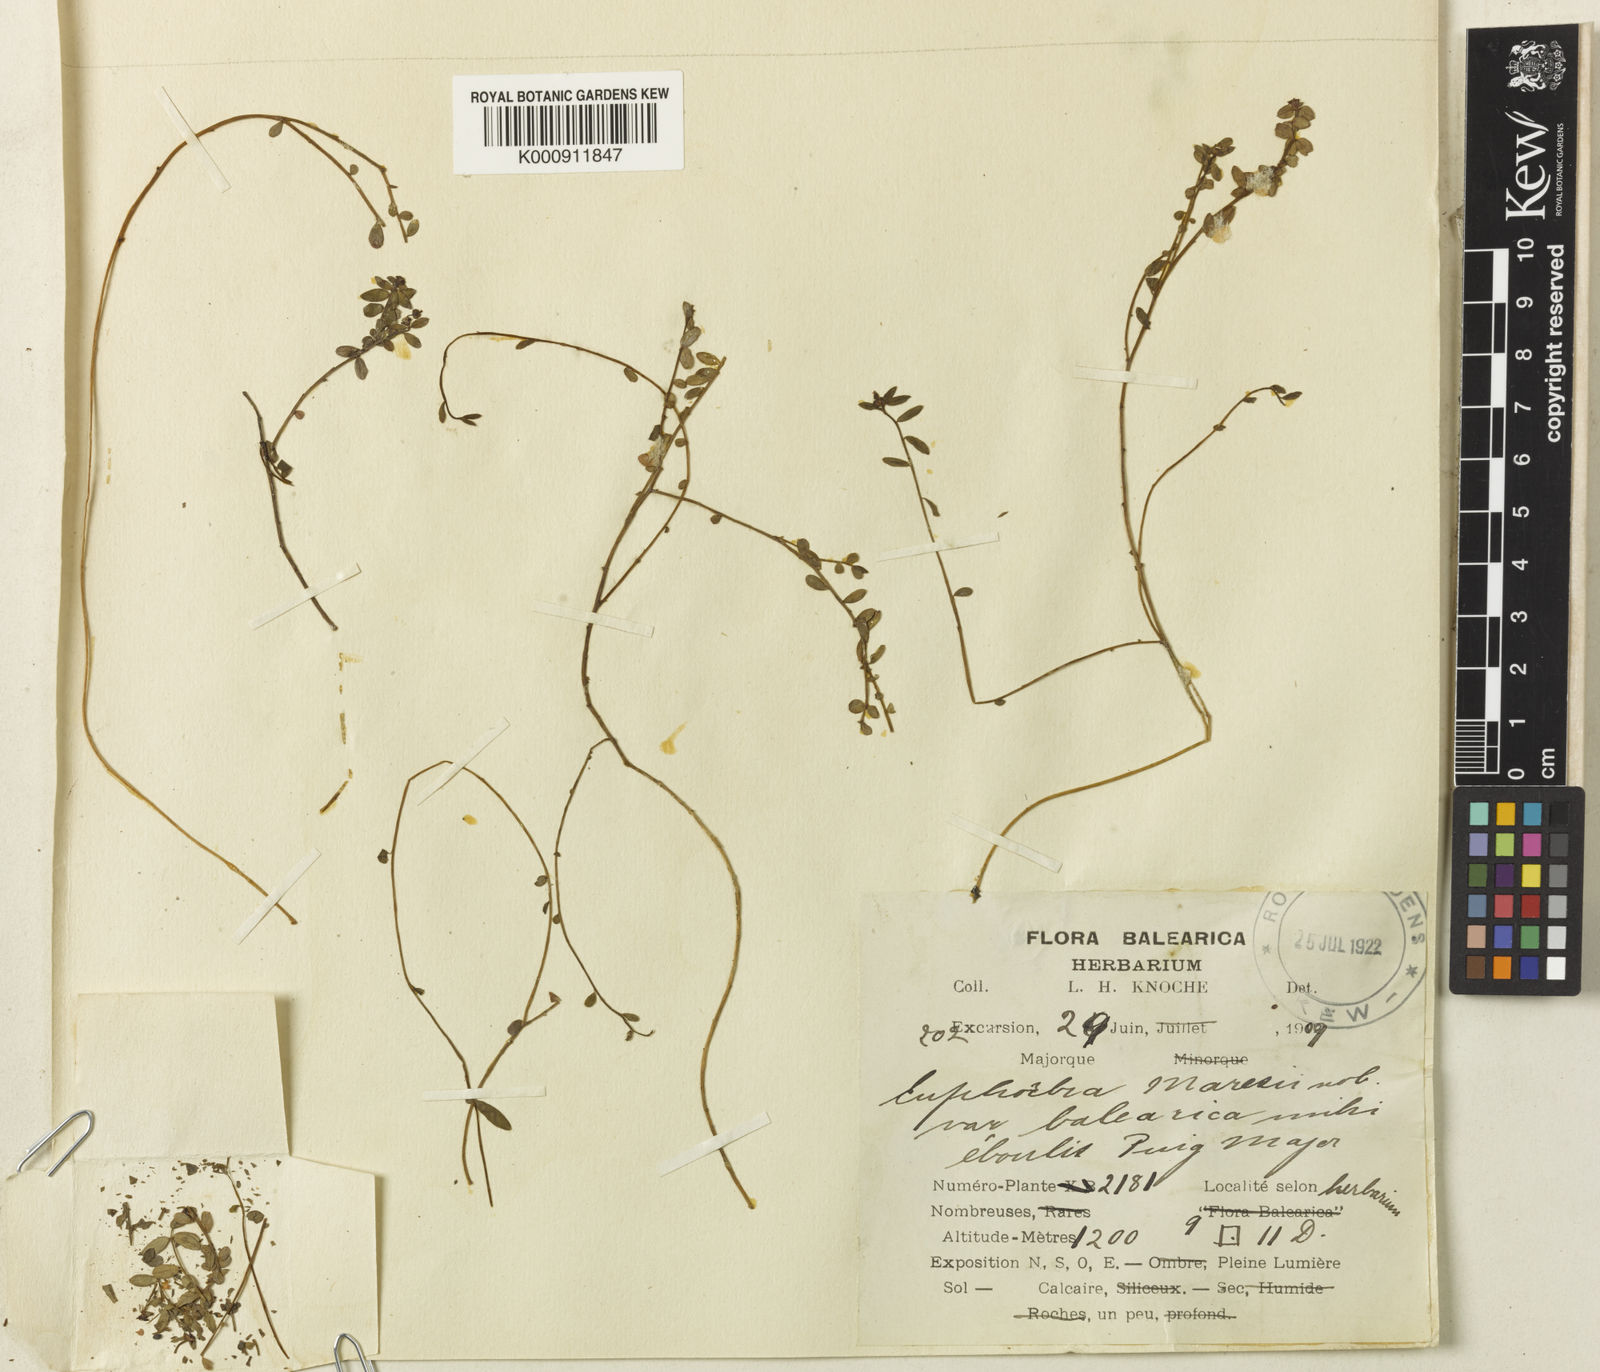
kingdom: Plantae
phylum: Tracheophyta
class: Magnoliopsida
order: Malpighiales
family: Euphorbiaceae
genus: Euphorbia
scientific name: Euphorbia maresii
